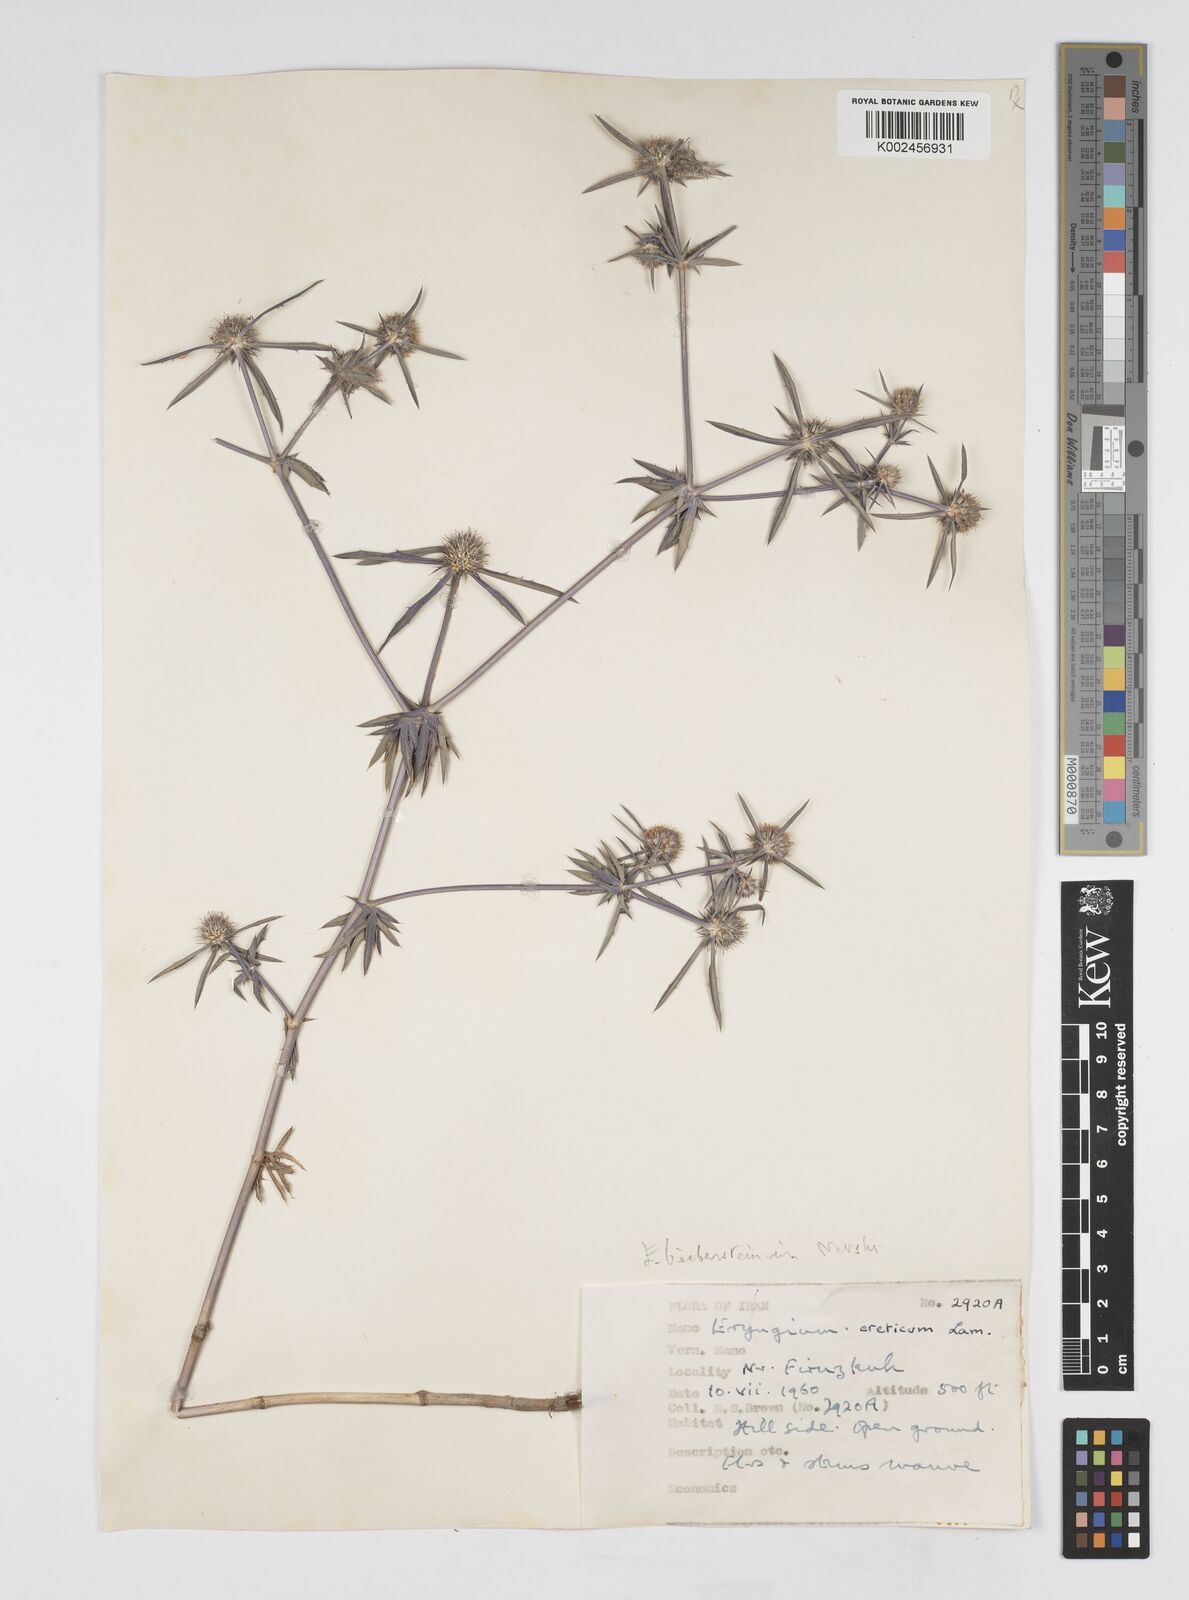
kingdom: Plantae
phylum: Tracheophyta
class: Magnoliopsida
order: Apiales
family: Apiaceae
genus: Eryngium
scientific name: Eryngium caeruleum
